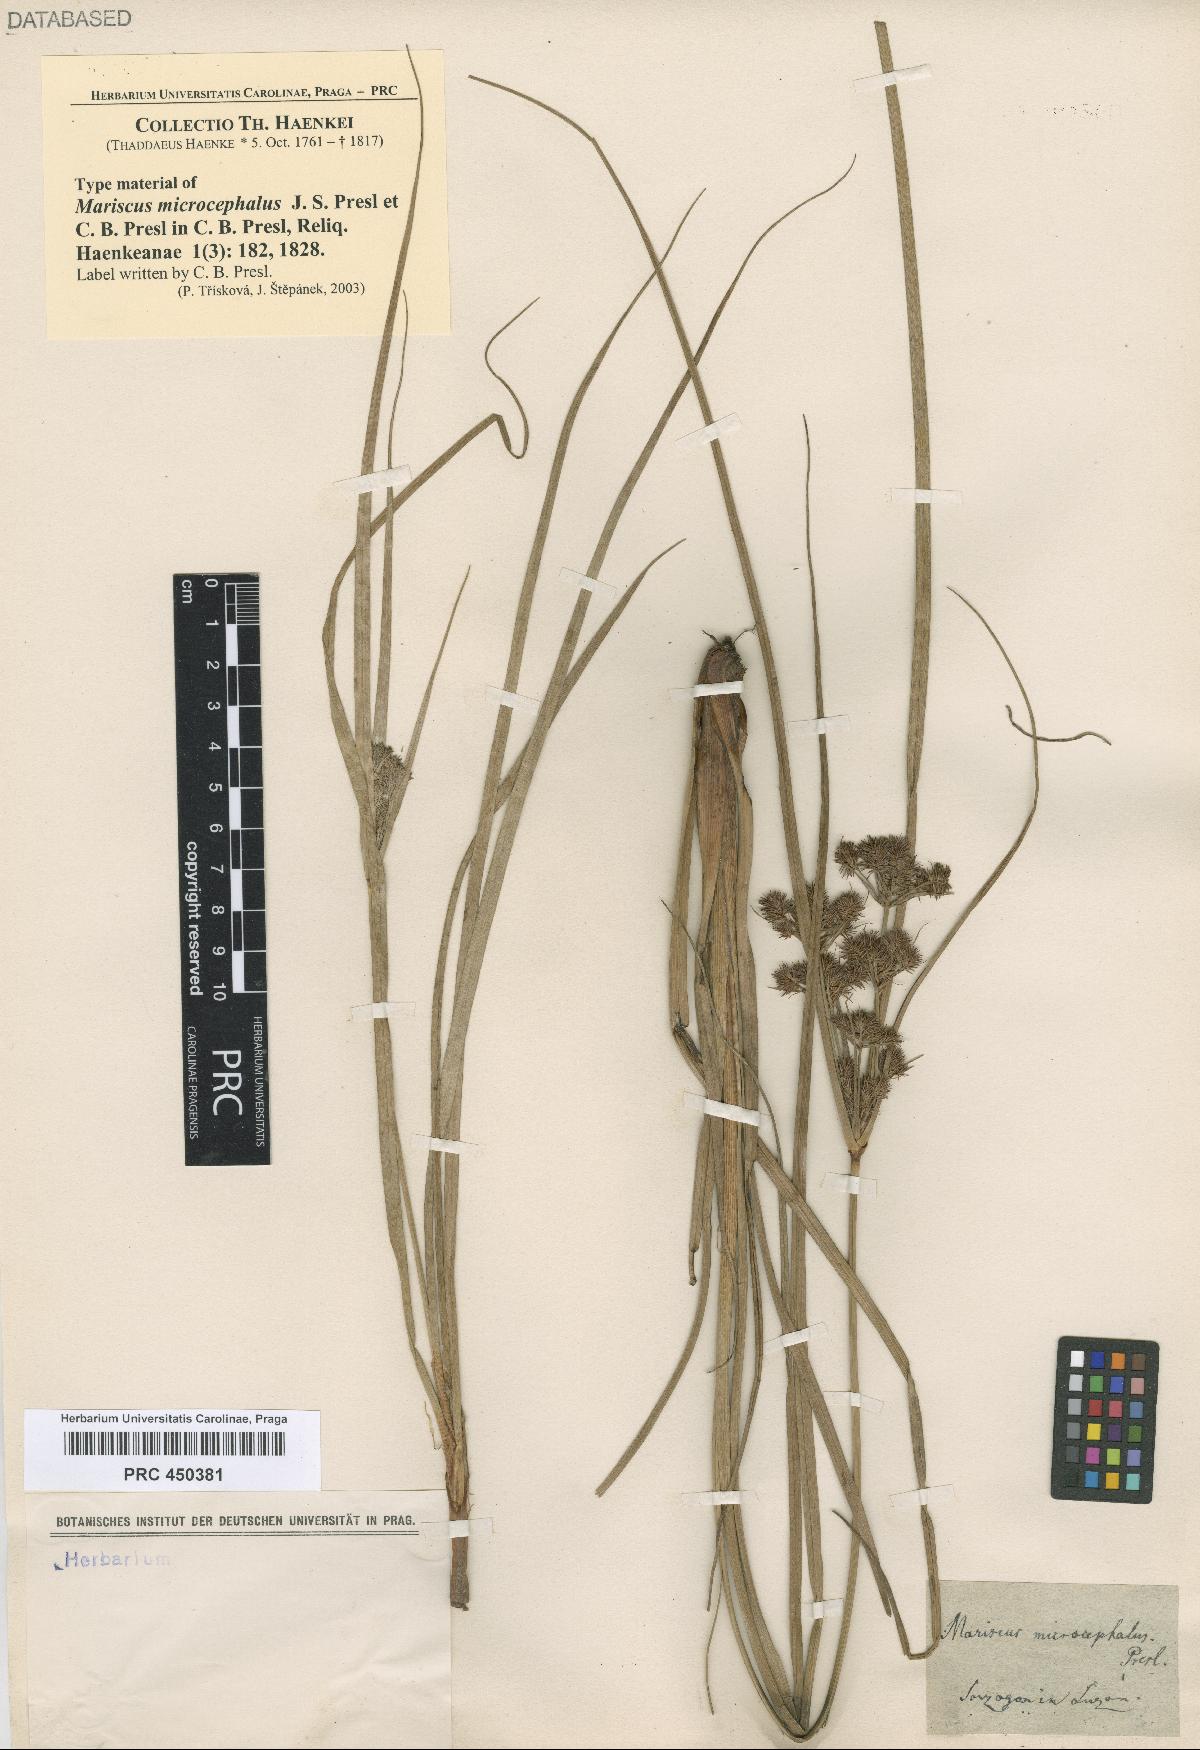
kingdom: Plantae
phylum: Tracheophyta
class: Liliopsida
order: Poales
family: Cyperaceae
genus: Cyperus
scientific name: Cyperus compactus
